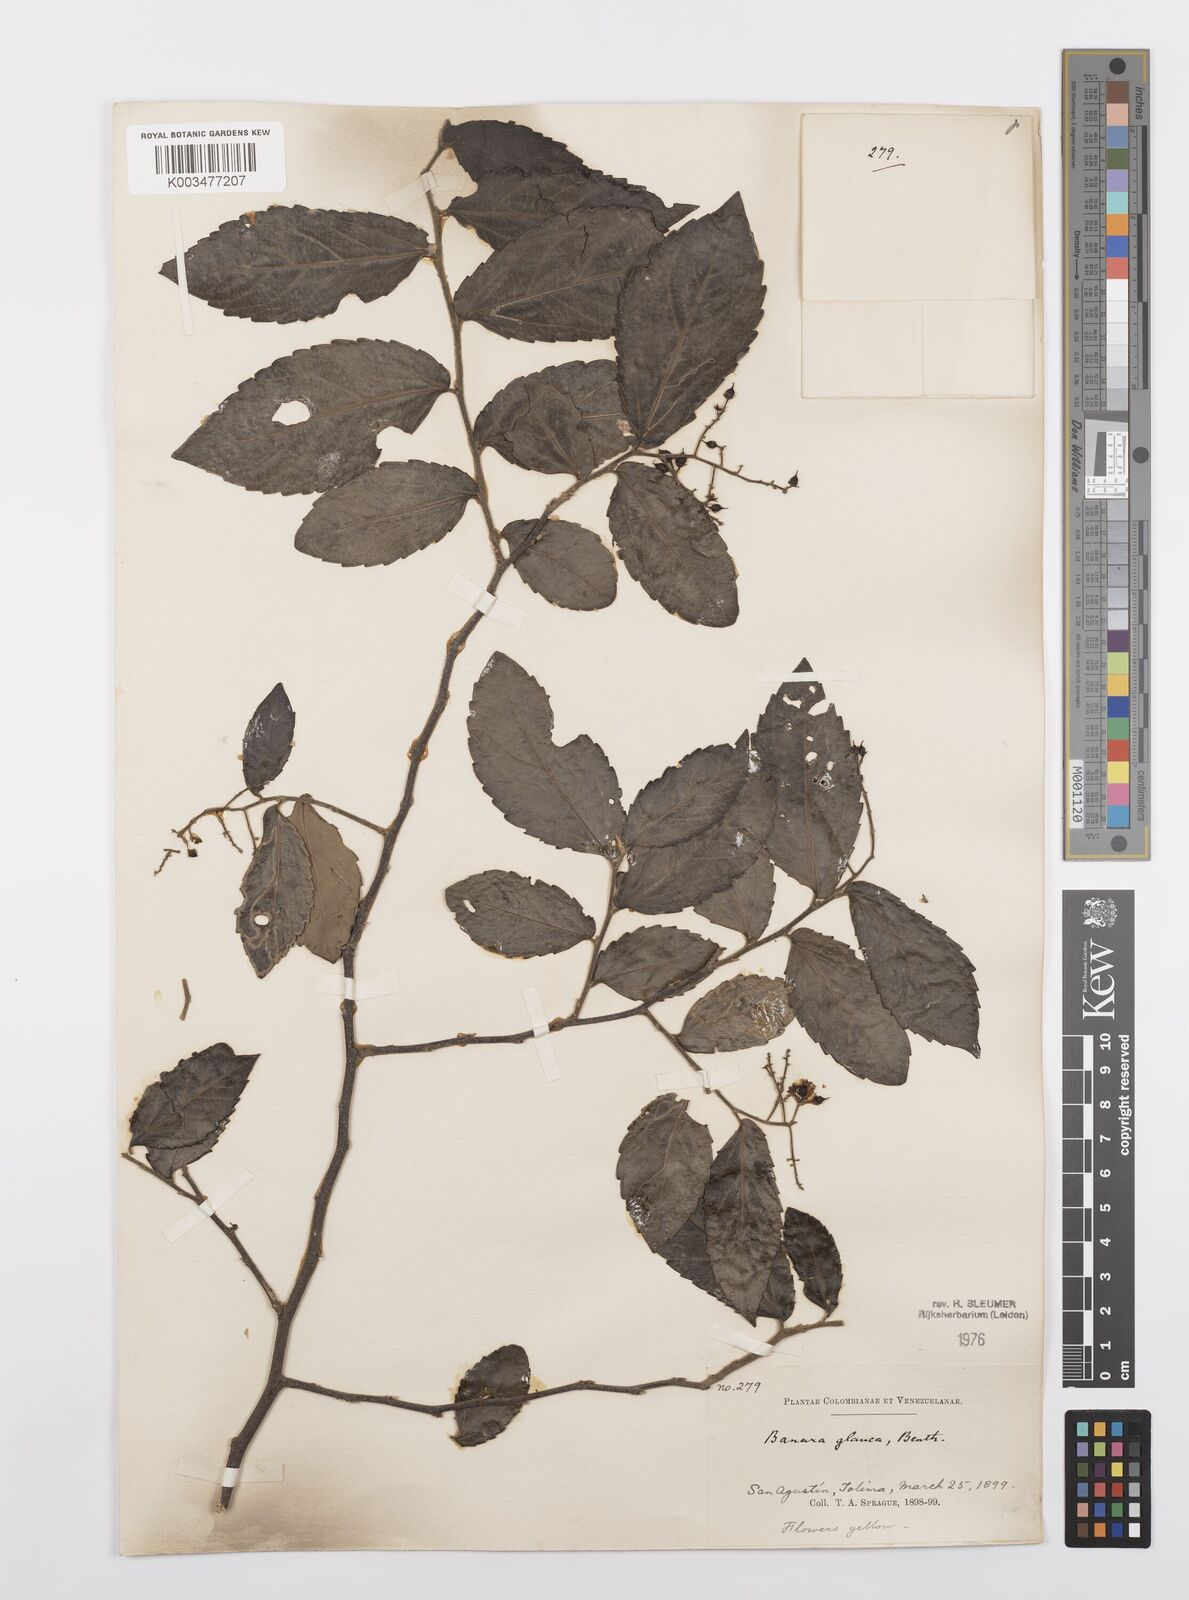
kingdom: Plantae
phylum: Tracheophyta
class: Magnoliopsida
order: Malpighiales
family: Salicaceae
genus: Banara
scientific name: Banara glauca
